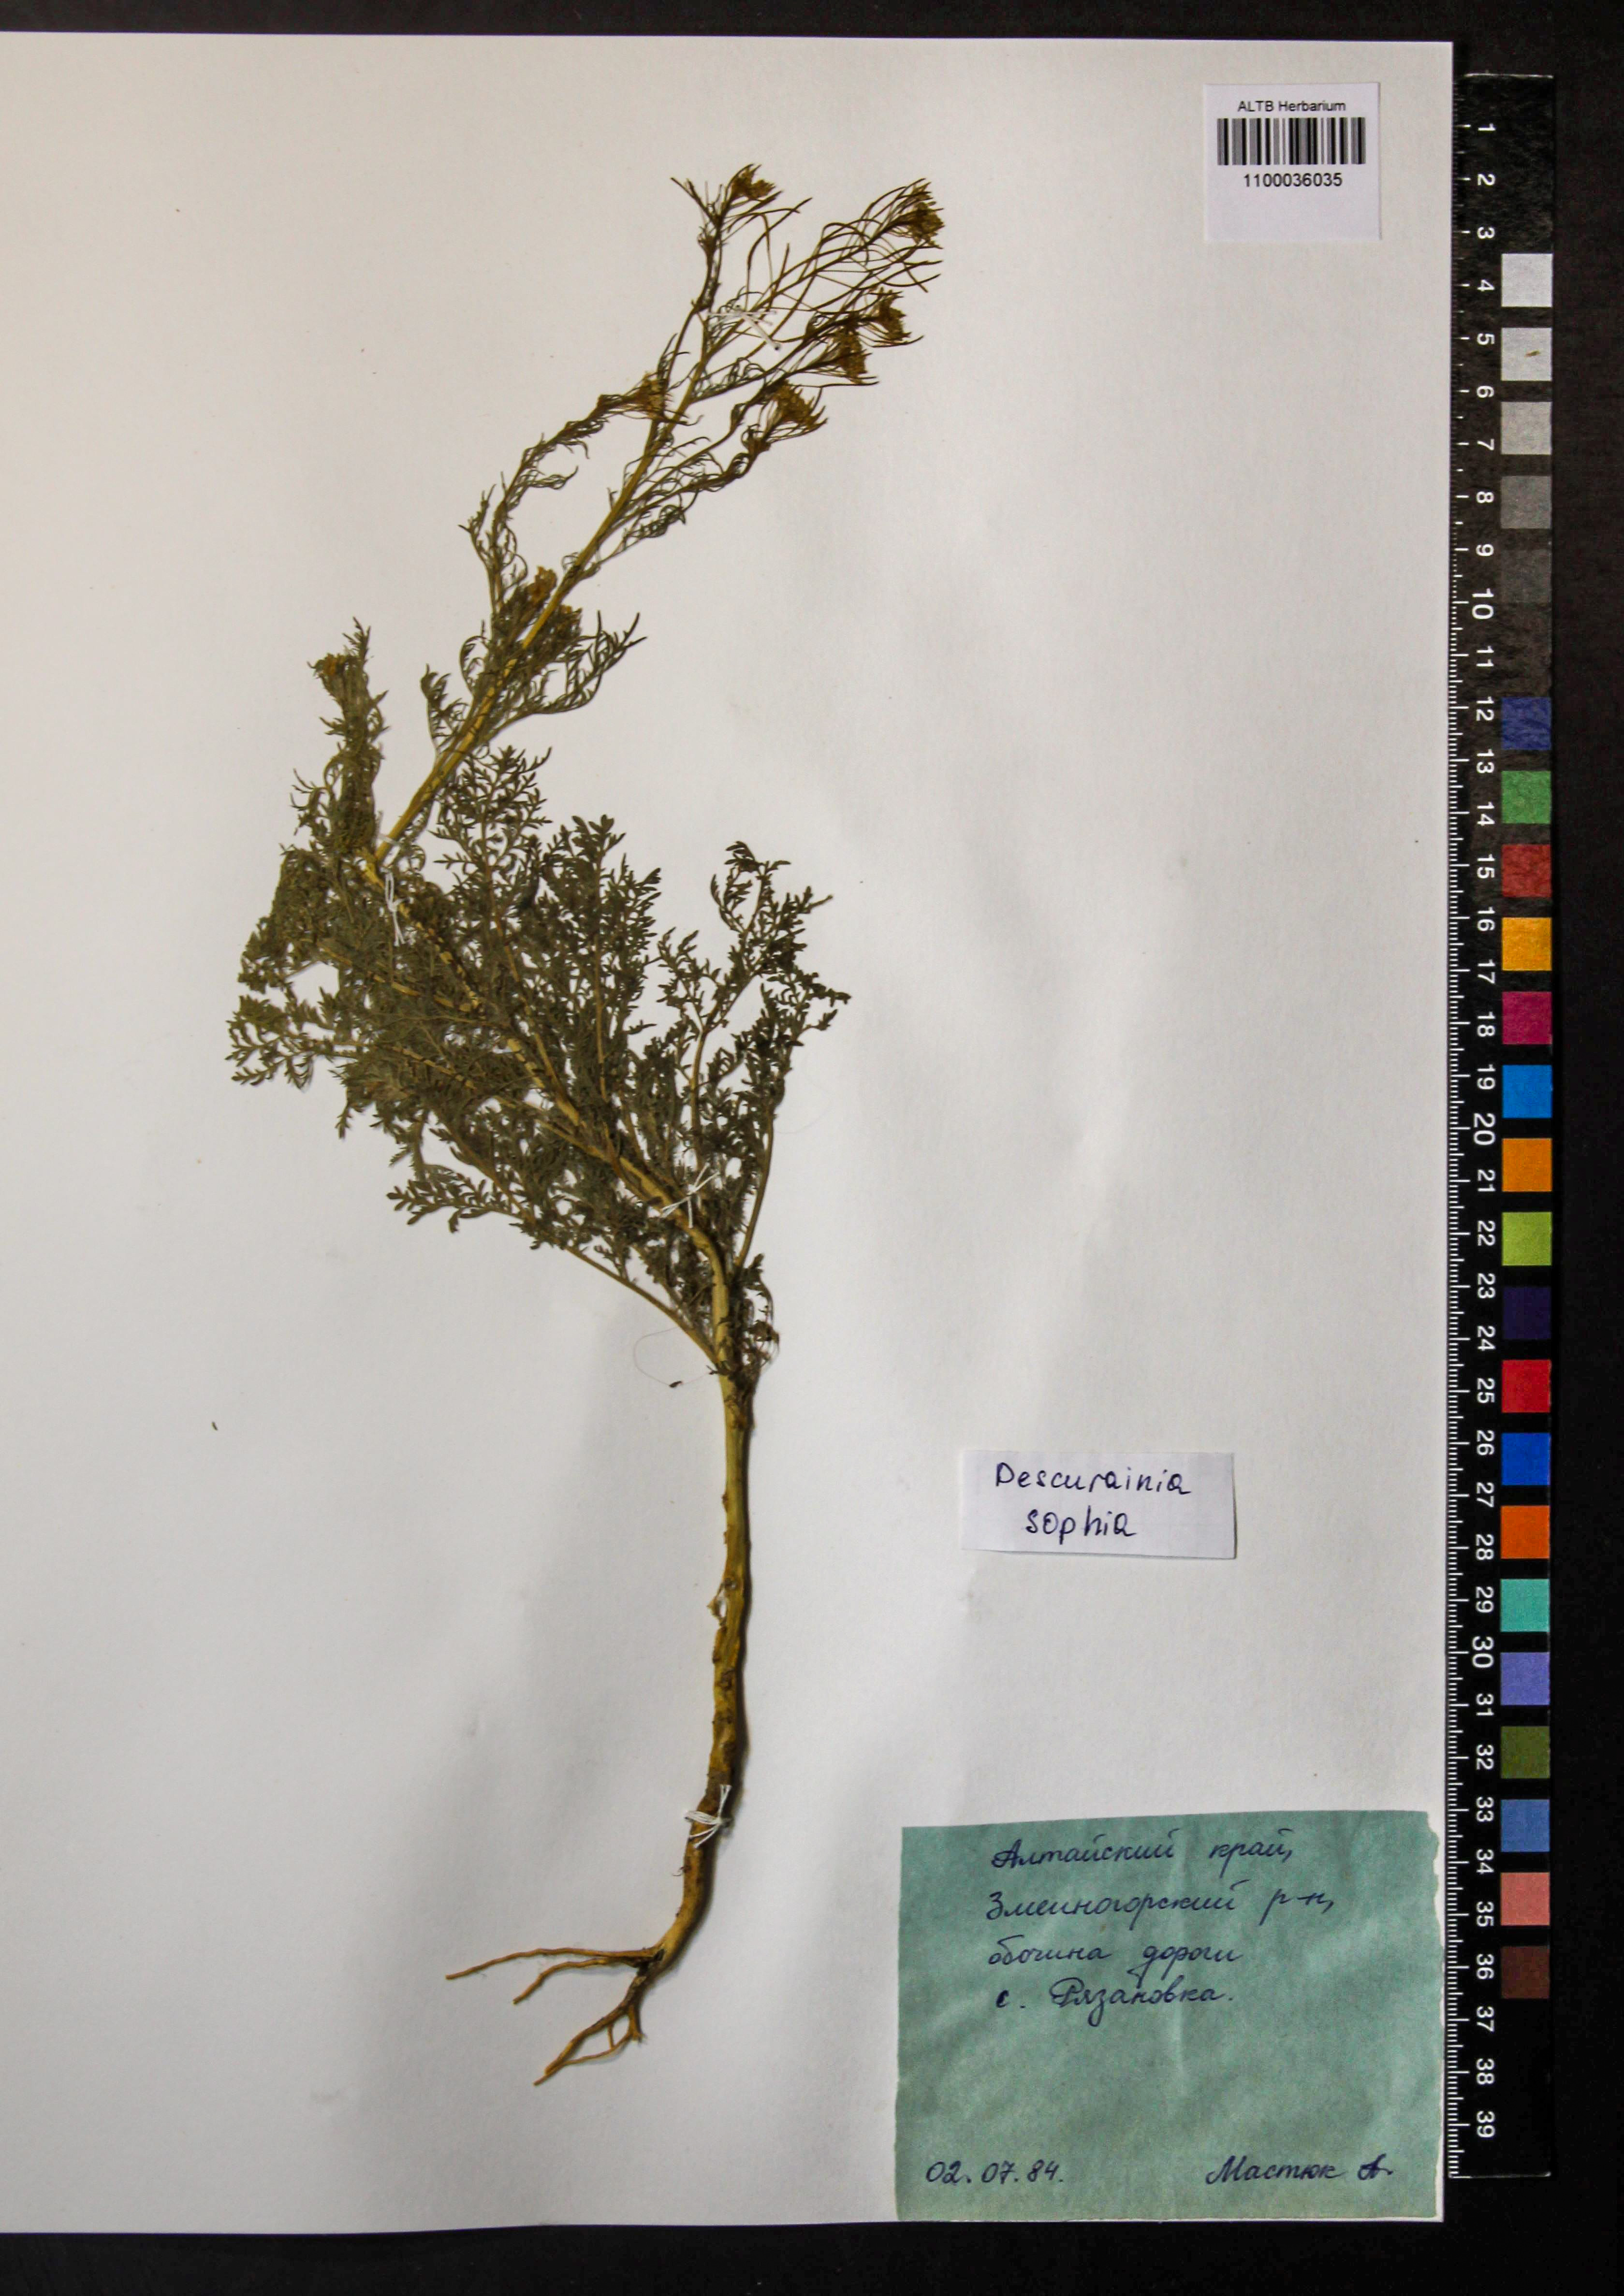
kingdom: Plantae
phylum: Tracheophyta
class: Magnoliopsida
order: Brassicales
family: Brassicaceae
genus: Descurainia
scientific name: Descurainia sophia
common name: Flixweed
